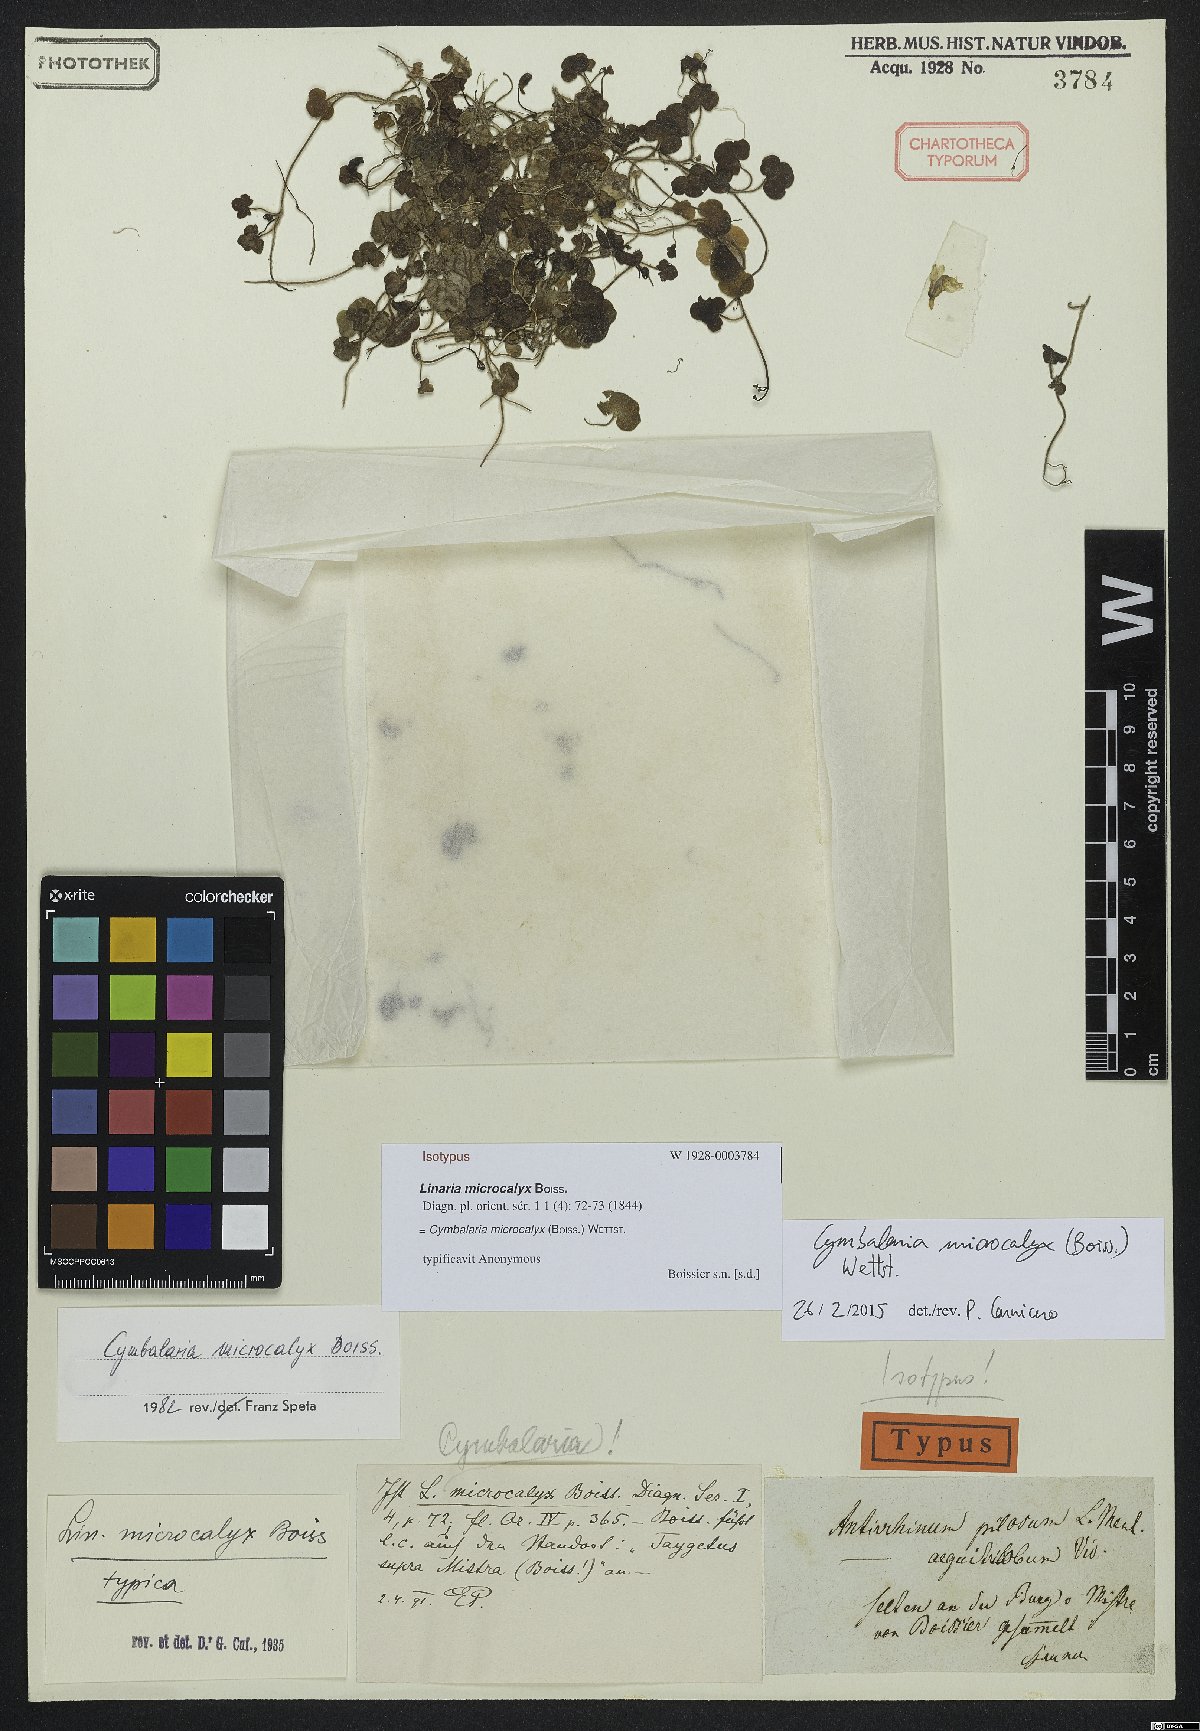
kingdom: Plantae
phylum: Tracheophyta
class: Magnoliopsida
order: Lamiales
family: Plantaginaceae
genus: Cymbalaria
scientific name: Cymbalaria microcalyx
